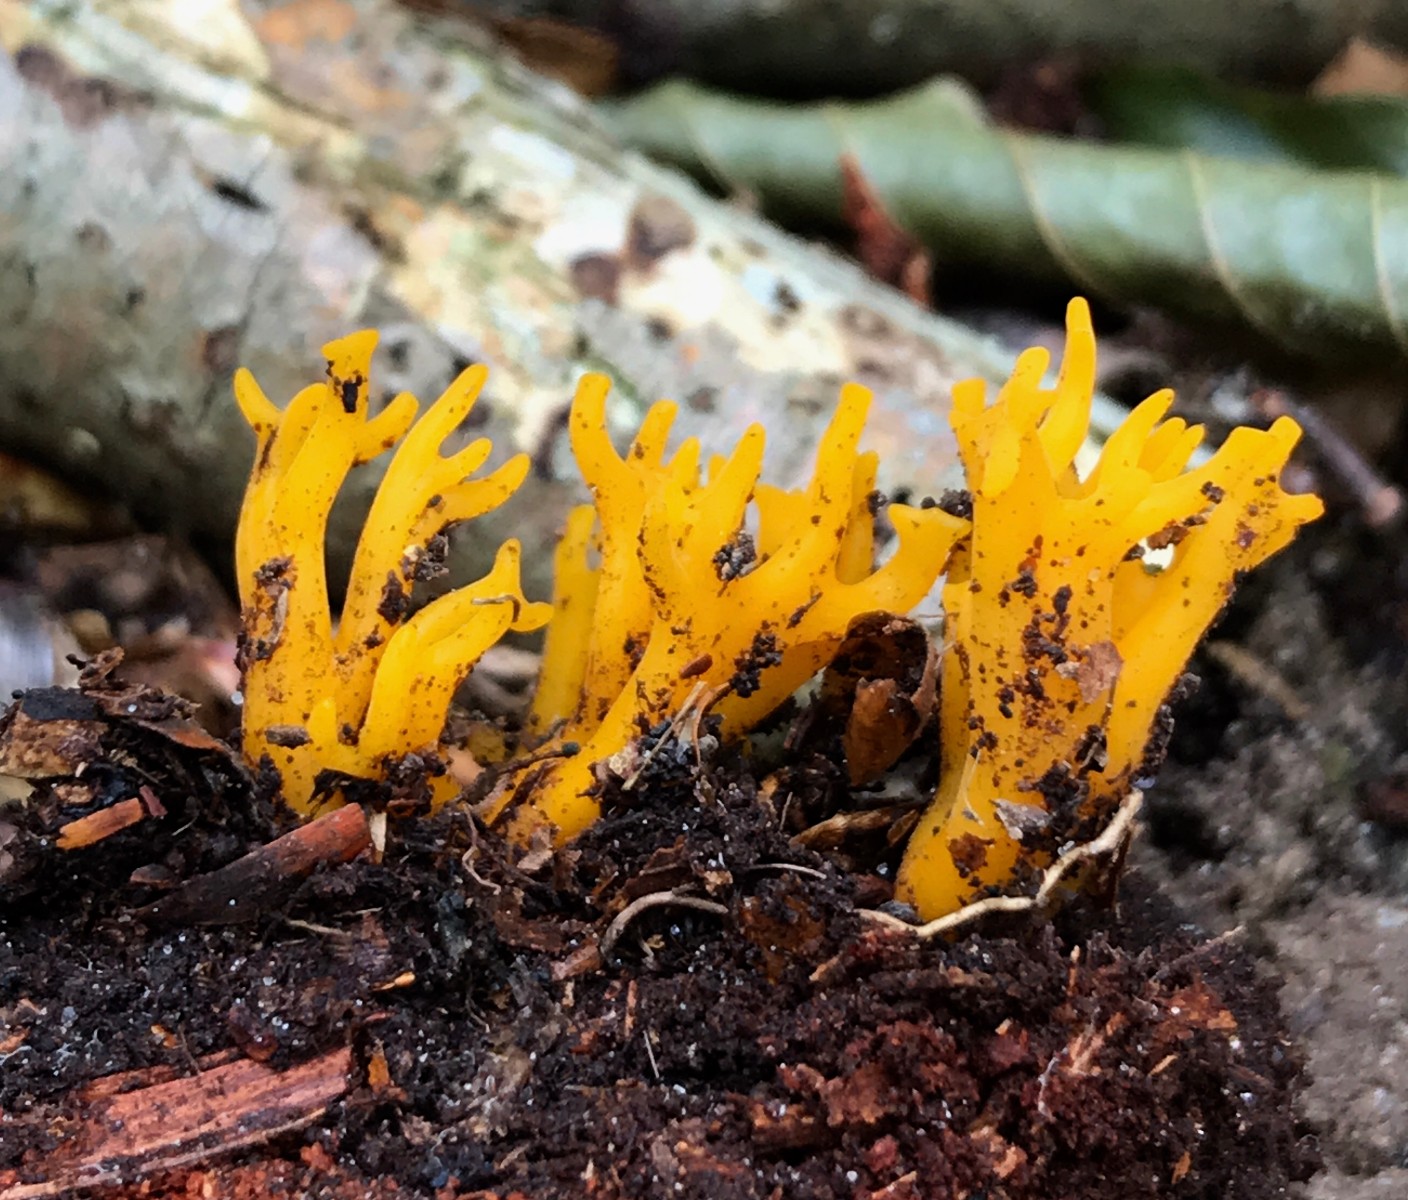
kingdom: Fungi
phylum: Basidiomycota
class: Dacrymycetes
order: Dacrymycetales
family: Dacrymycetaceae
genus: Calocera
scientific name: Calocera viscosa
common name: almindelig guldgaffel
